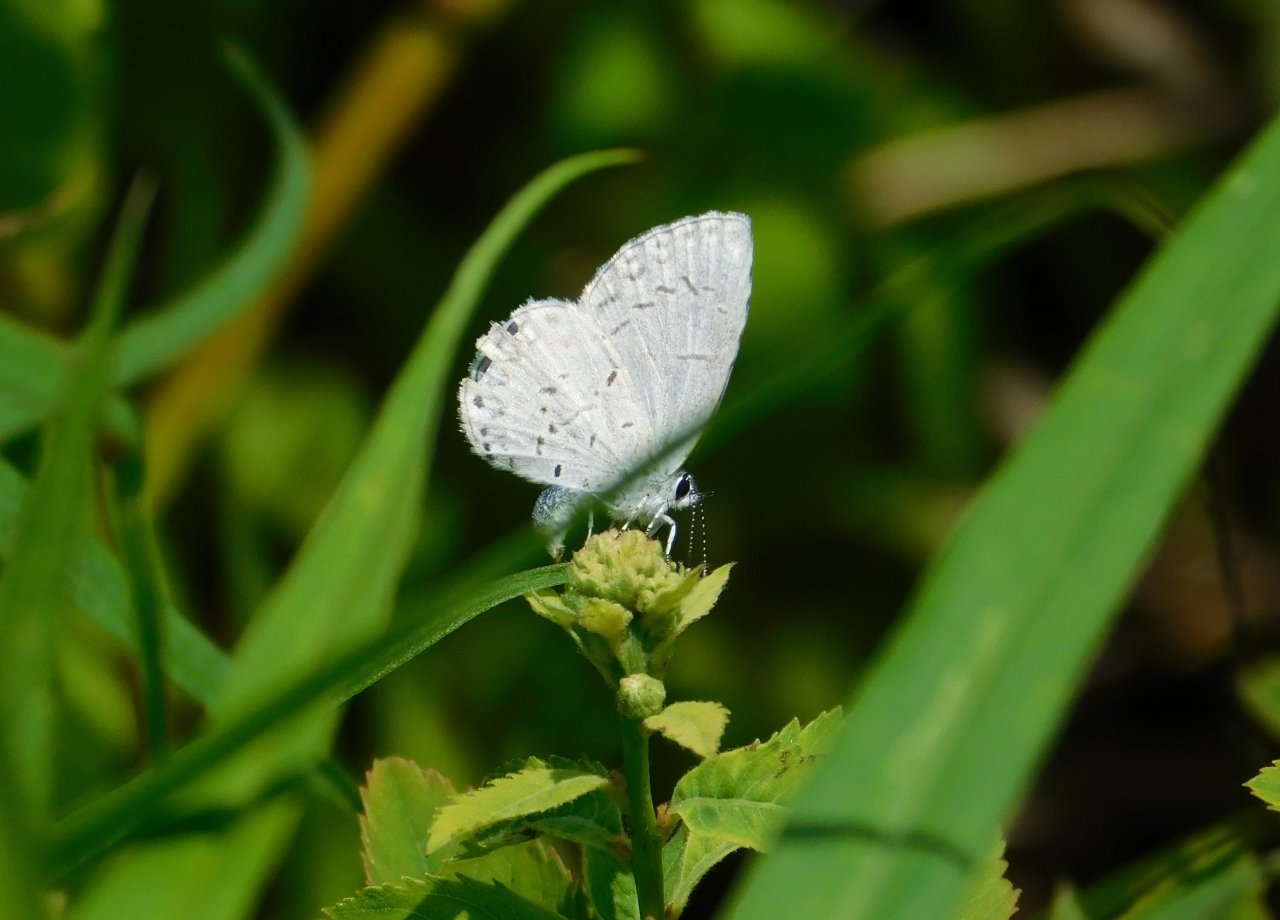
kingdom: Animalia
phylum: Arthropoda
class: Insecta
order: Lepidoptera
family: Lycaenidae
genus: Celastrina
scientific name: Celastrina lucia
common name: Northern Spring Azure
